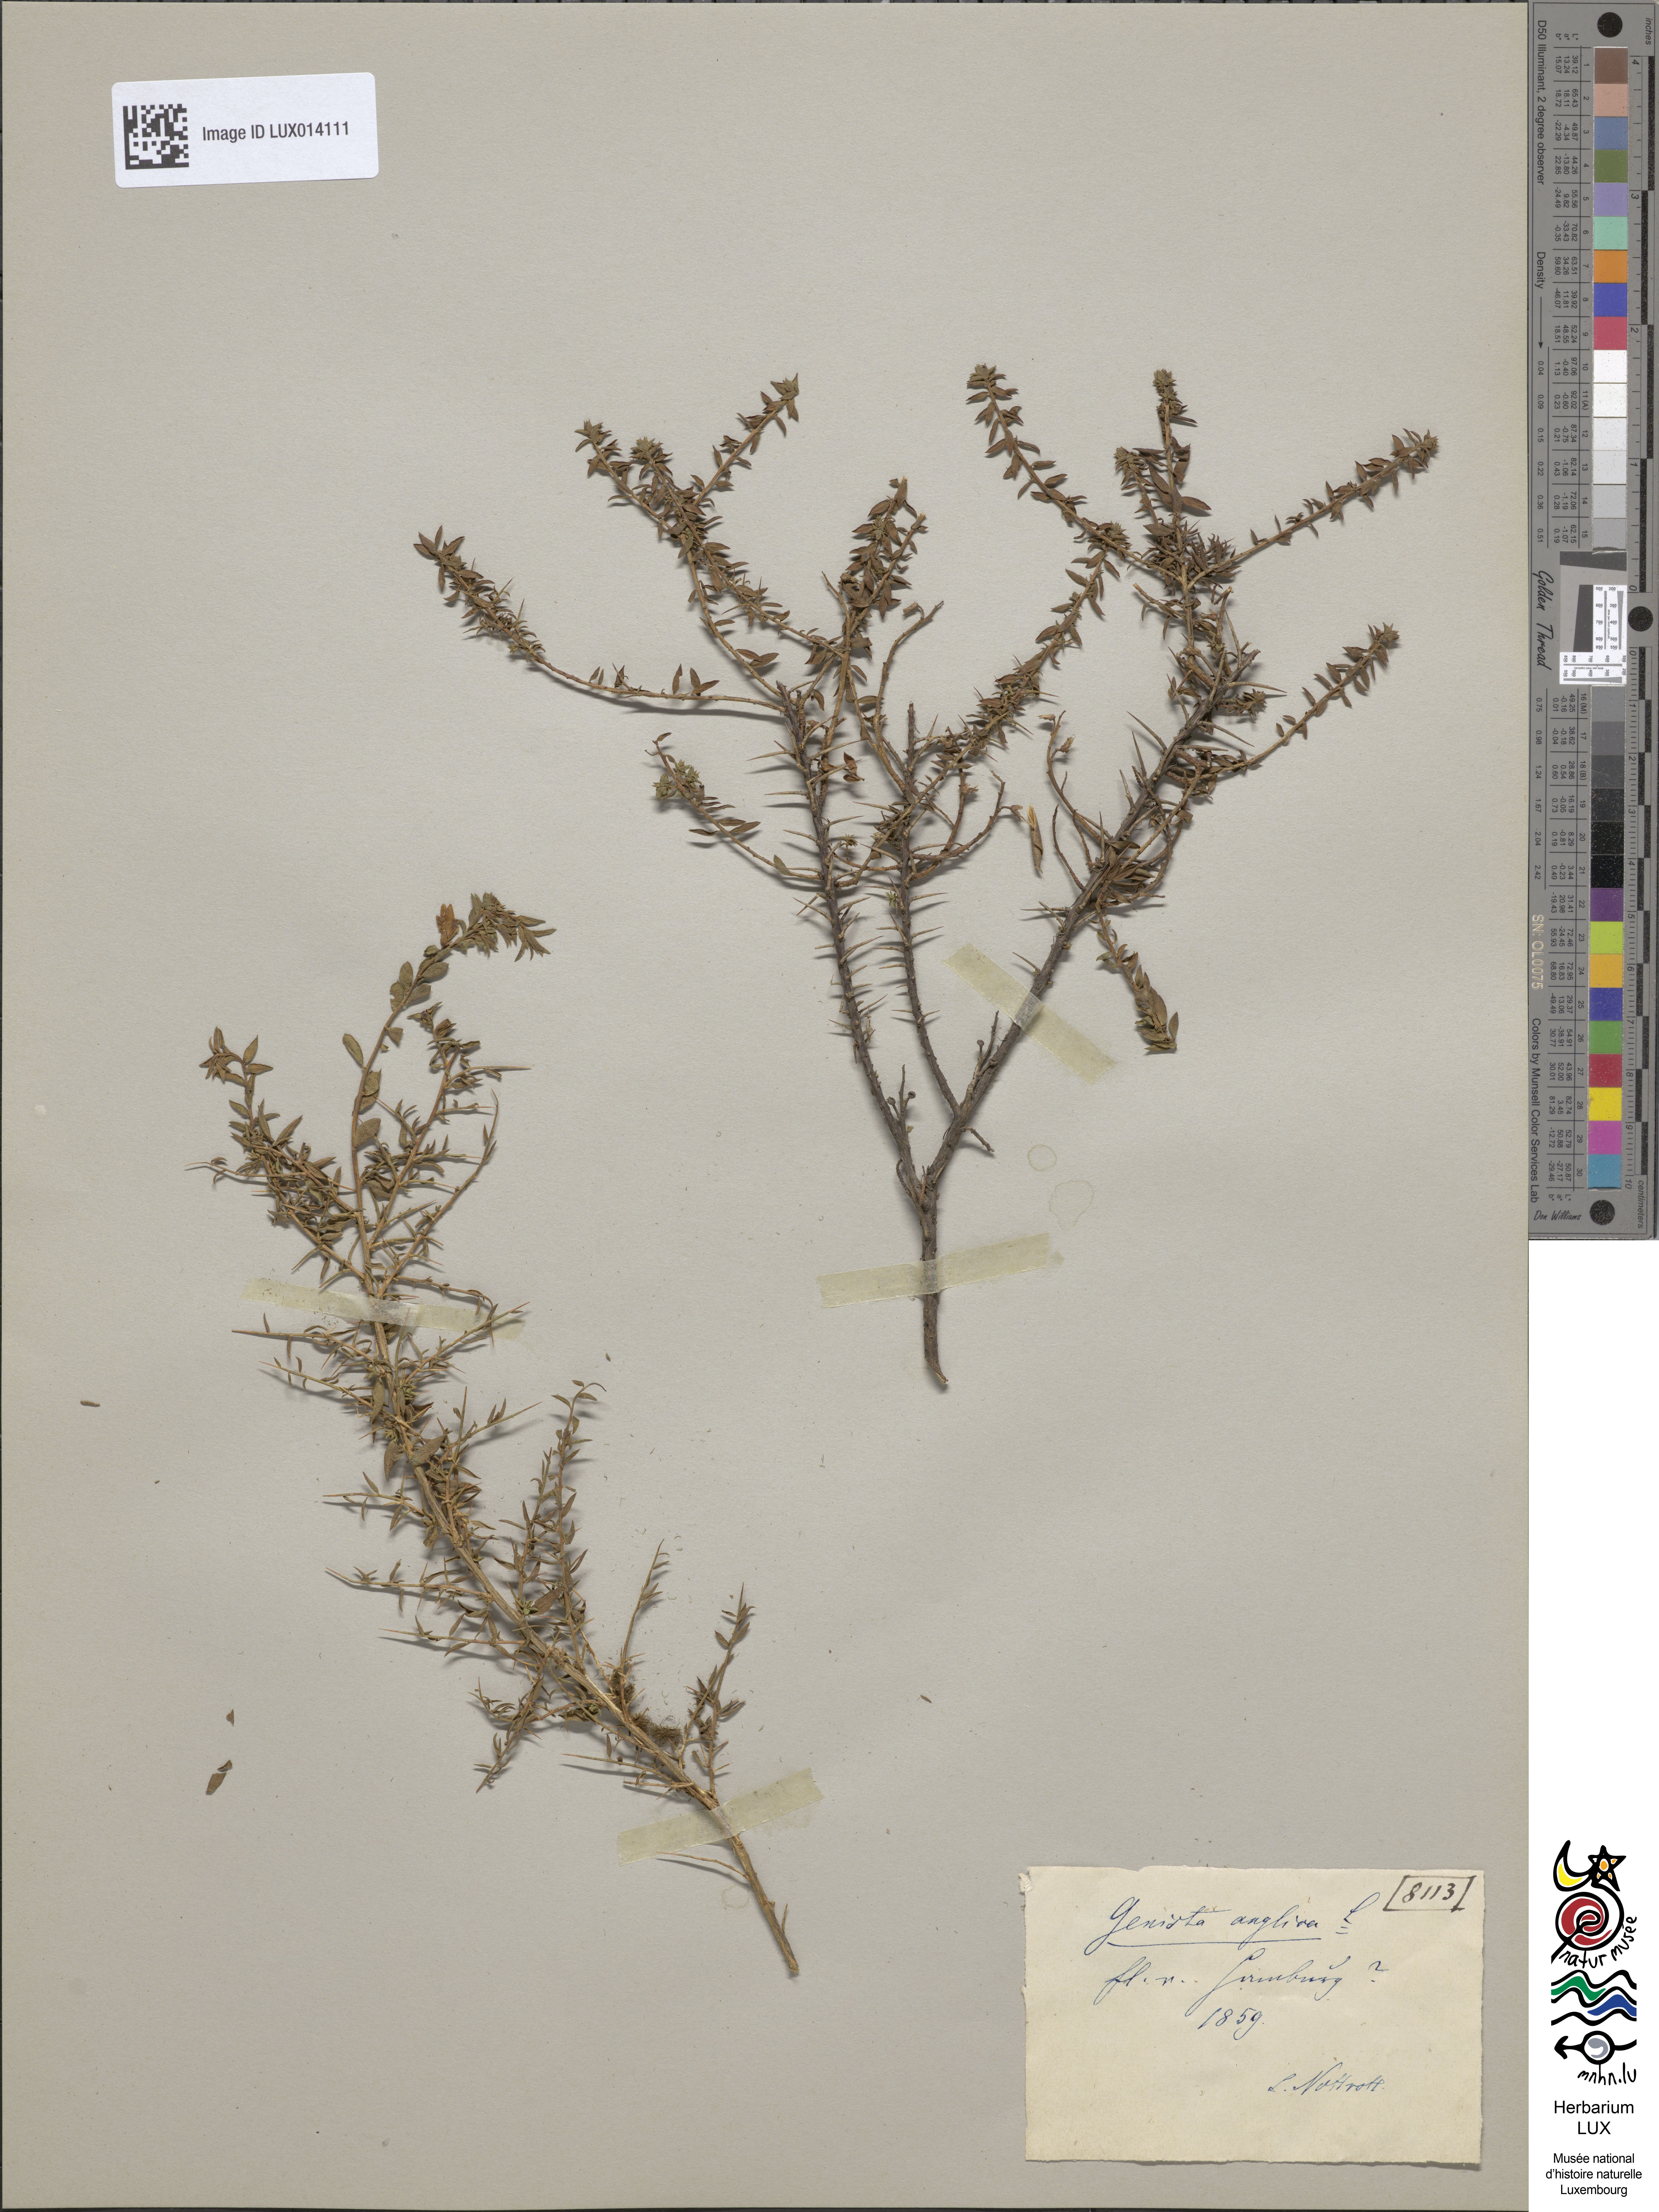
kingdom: Plantae
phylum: Tracheophyta
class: Magnoliopsida
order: Fabales
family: Fabaceae
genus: Genista
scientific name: Genista anglica
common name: Petty whin
